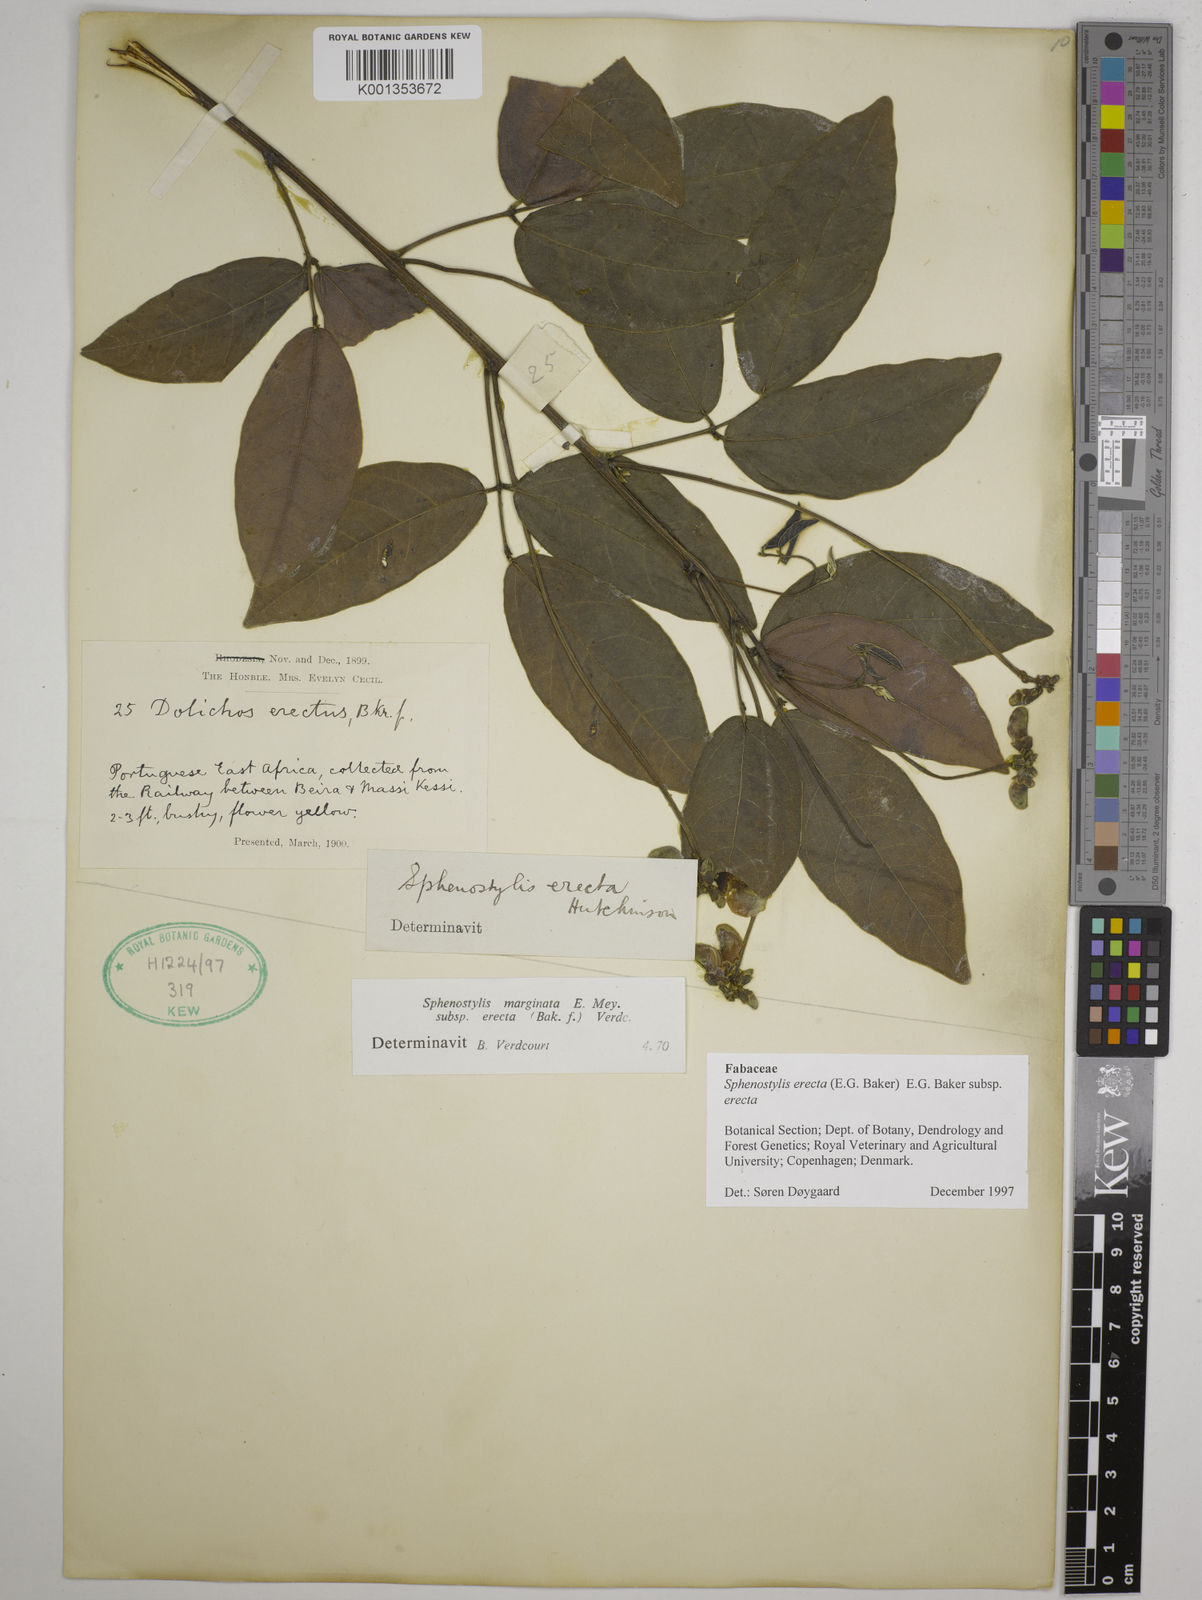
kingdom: Plantae
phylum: Tracheophyta
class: Magnoliopsida
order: Fabales
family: Fabaceae
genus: Sphenostylis
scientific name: Sphenostylis erecta
